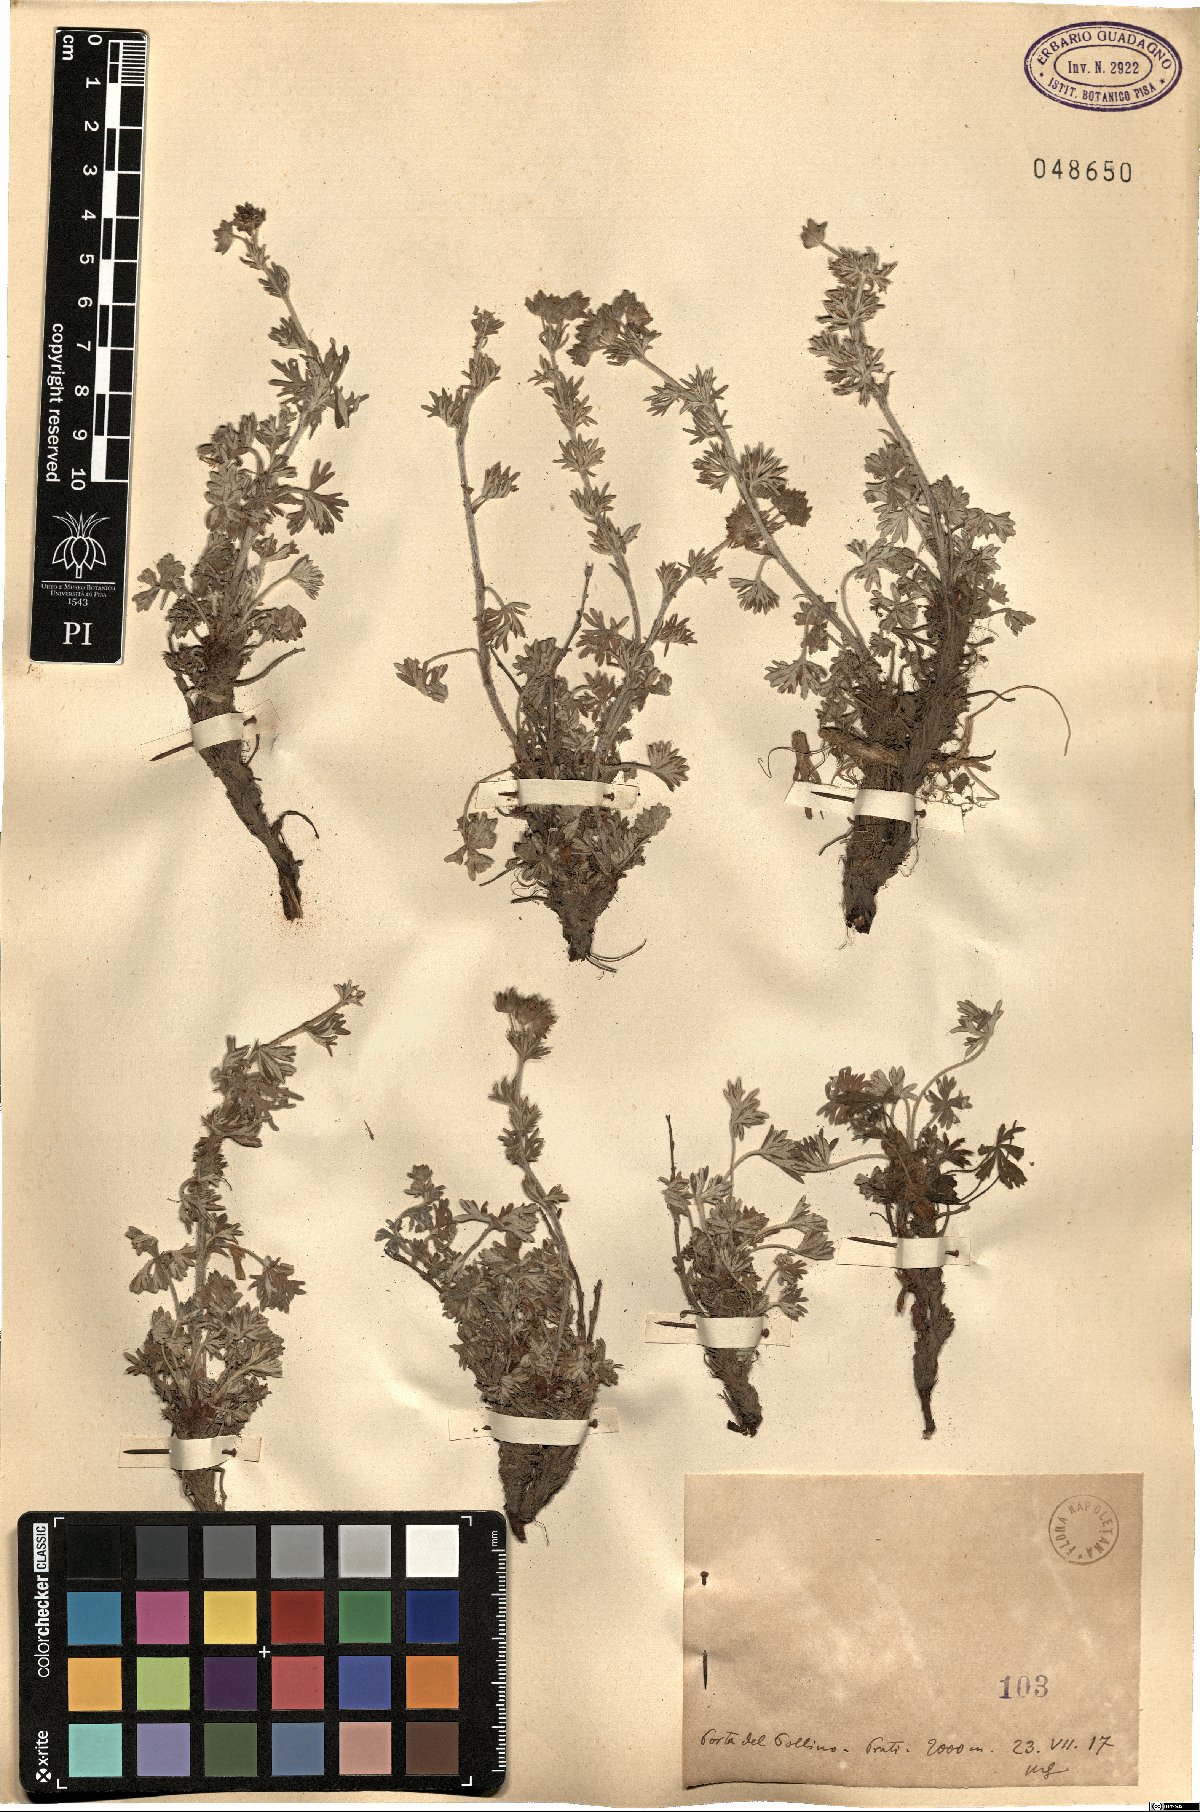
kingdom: Plantae
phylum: Tracheophyta
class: Magnoliopsida
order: Rosales
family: Rosaceae
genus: Potentilla
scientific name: Potentilla
